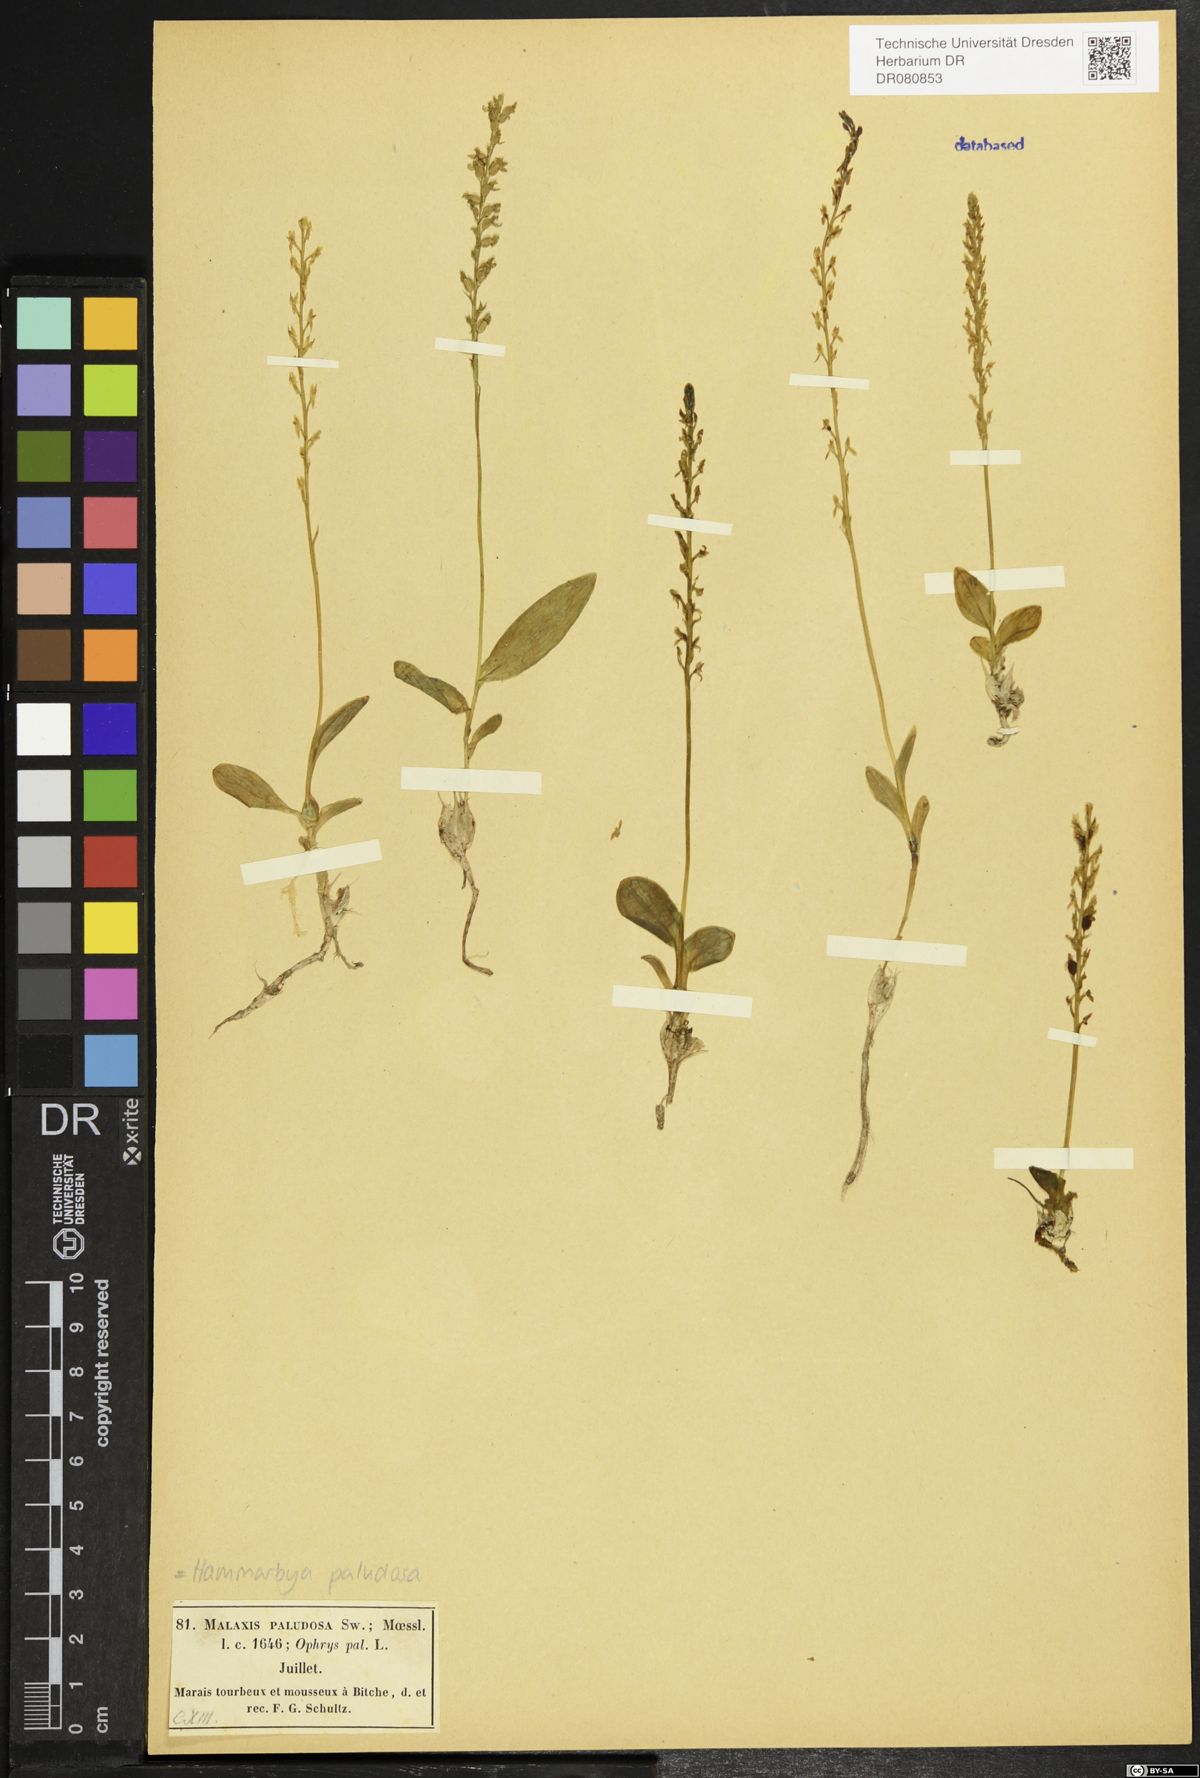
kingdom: Plantae
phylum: Tracheophyta
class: Liliopsida
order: Asparagales
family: Orchidaceae
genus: Hammarbya
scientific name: Hammarbya paludosa
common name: Bog orchid
